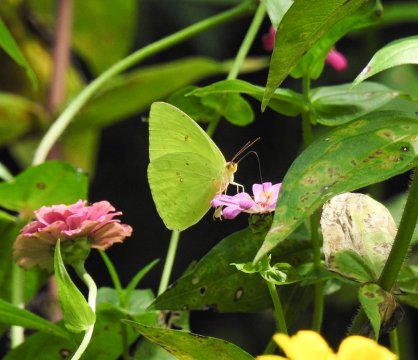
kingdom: Animalia
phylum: Arthropoda
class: Insecta
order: Lepidoptera
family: Pieridae
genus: Phoebis
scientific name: Phoebis sennae
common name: Cloudless Sulphur
